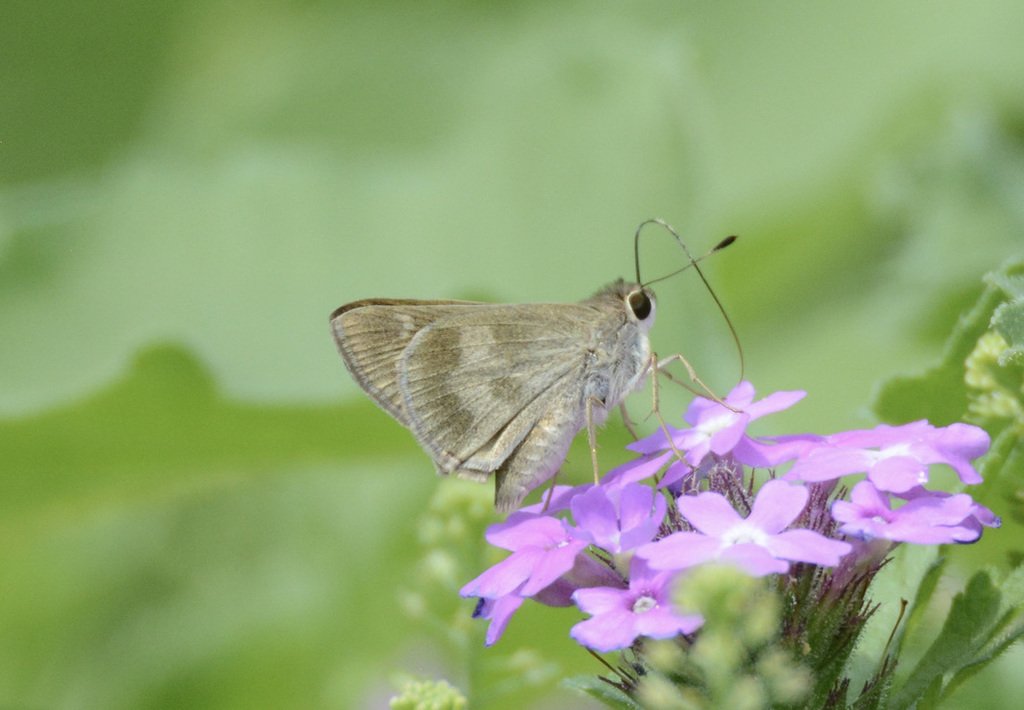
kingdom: Animalia
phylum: Arthropoda
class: Insecta
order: Lepidoptera
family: Hesperiidae
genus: Polites
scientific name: Polites vibex
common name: Whirlabout
